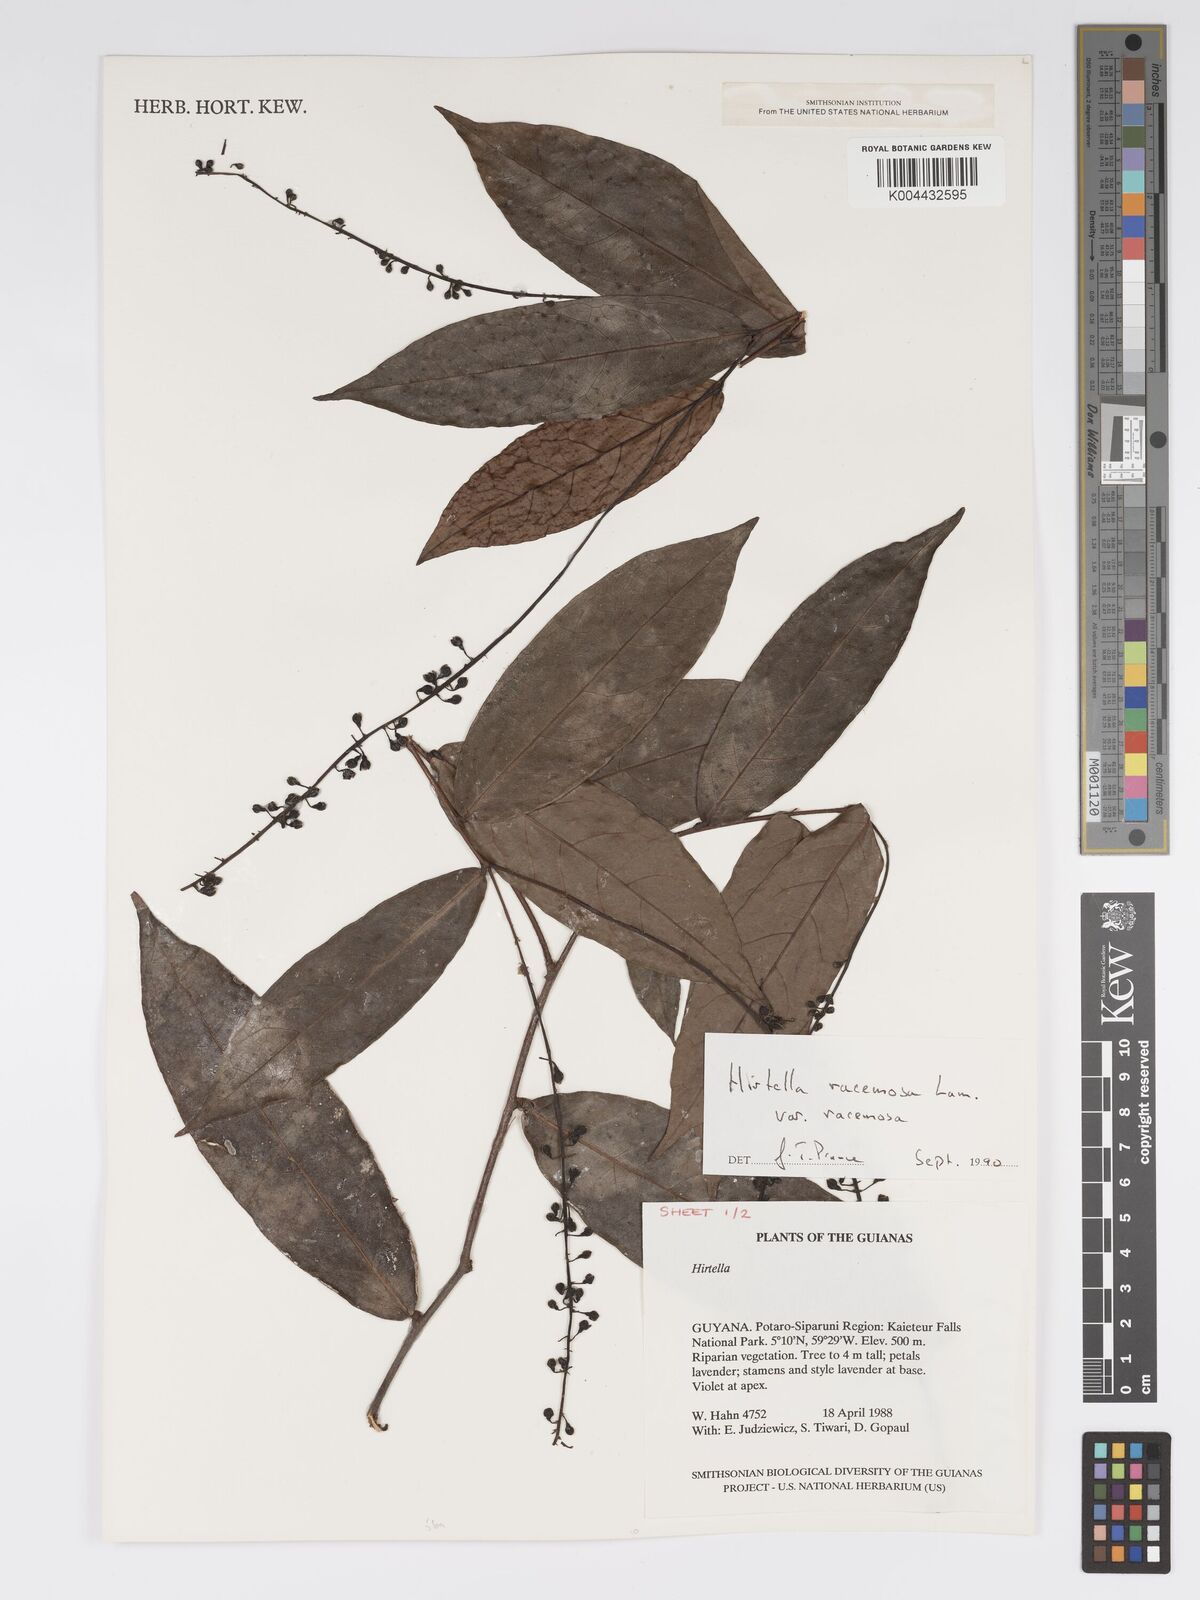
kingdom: Plantae
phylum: Tracheophyta
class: Magnoliopsida
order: Malpighiales
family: Chrysobalanaceae
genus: Hirtella
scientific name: Hirtella racemosa
